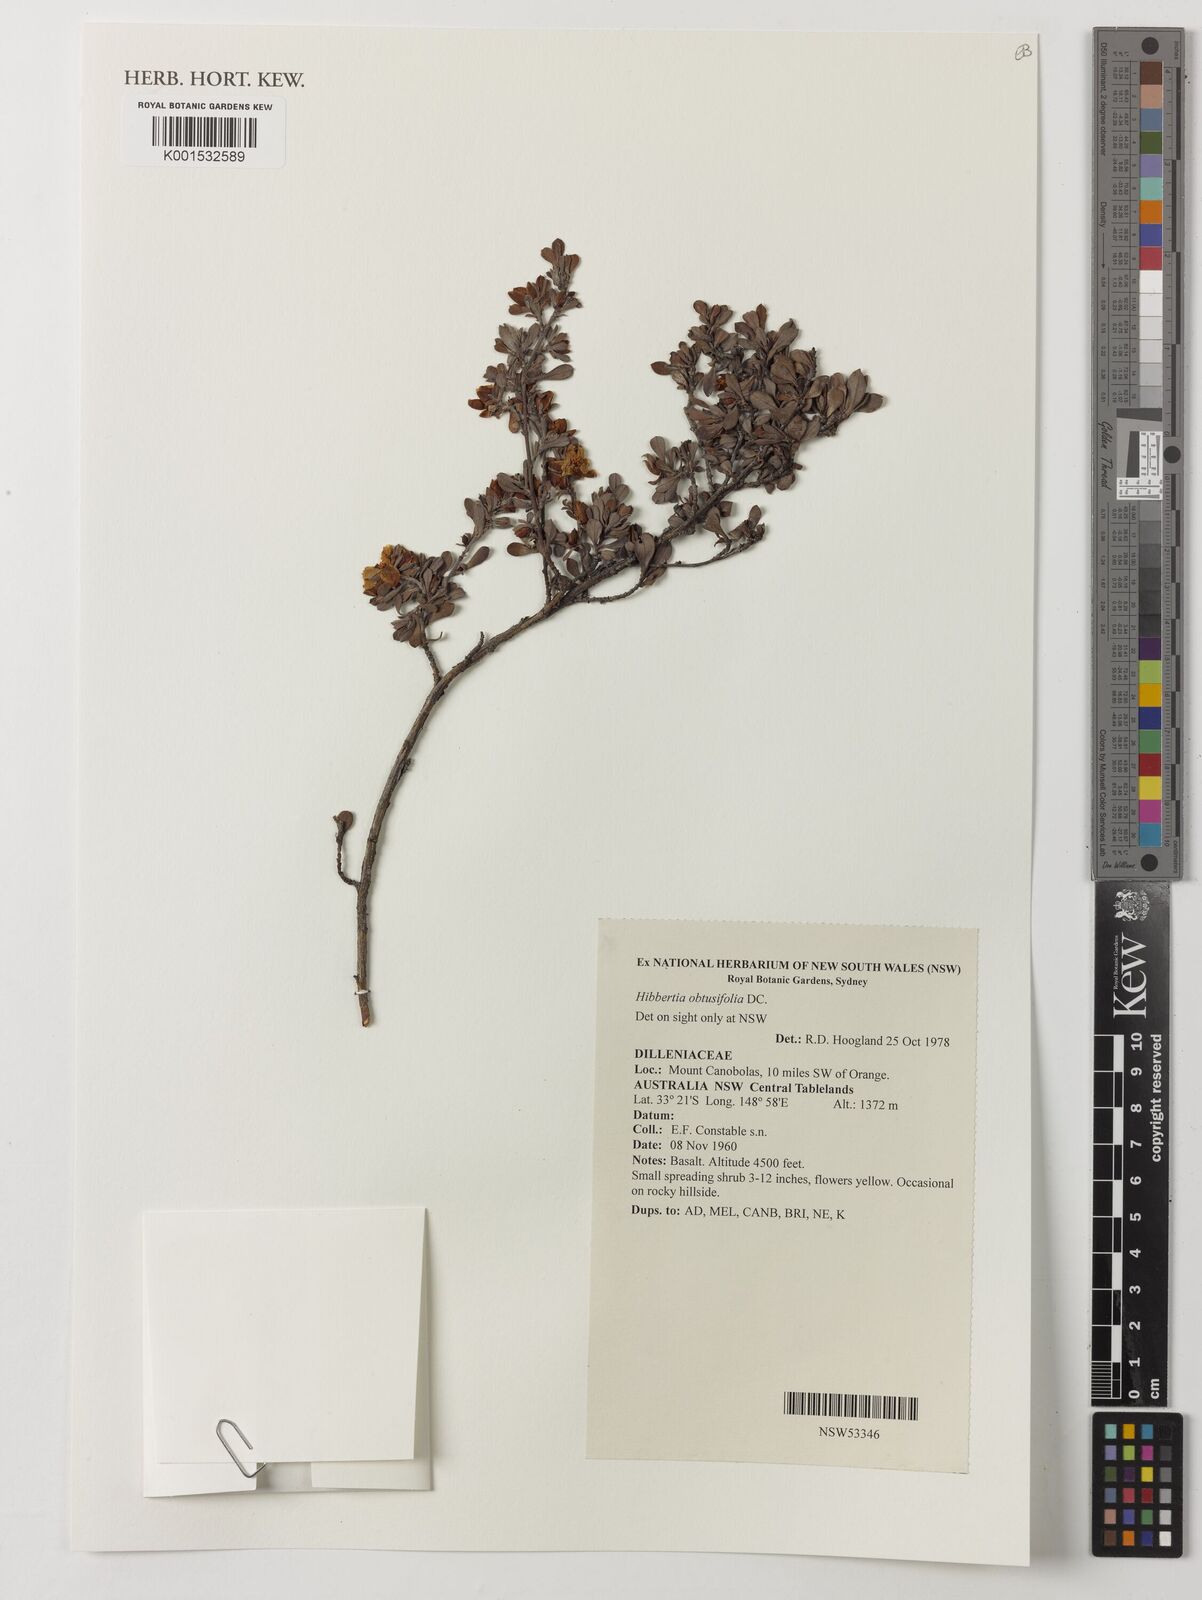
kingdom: Plantae
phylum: Tracheophyta
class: Magnoliopsida
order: Dilleniales
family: Dilleniaceae
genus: Hibbertia
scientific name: Hibbertia obtusifolia
